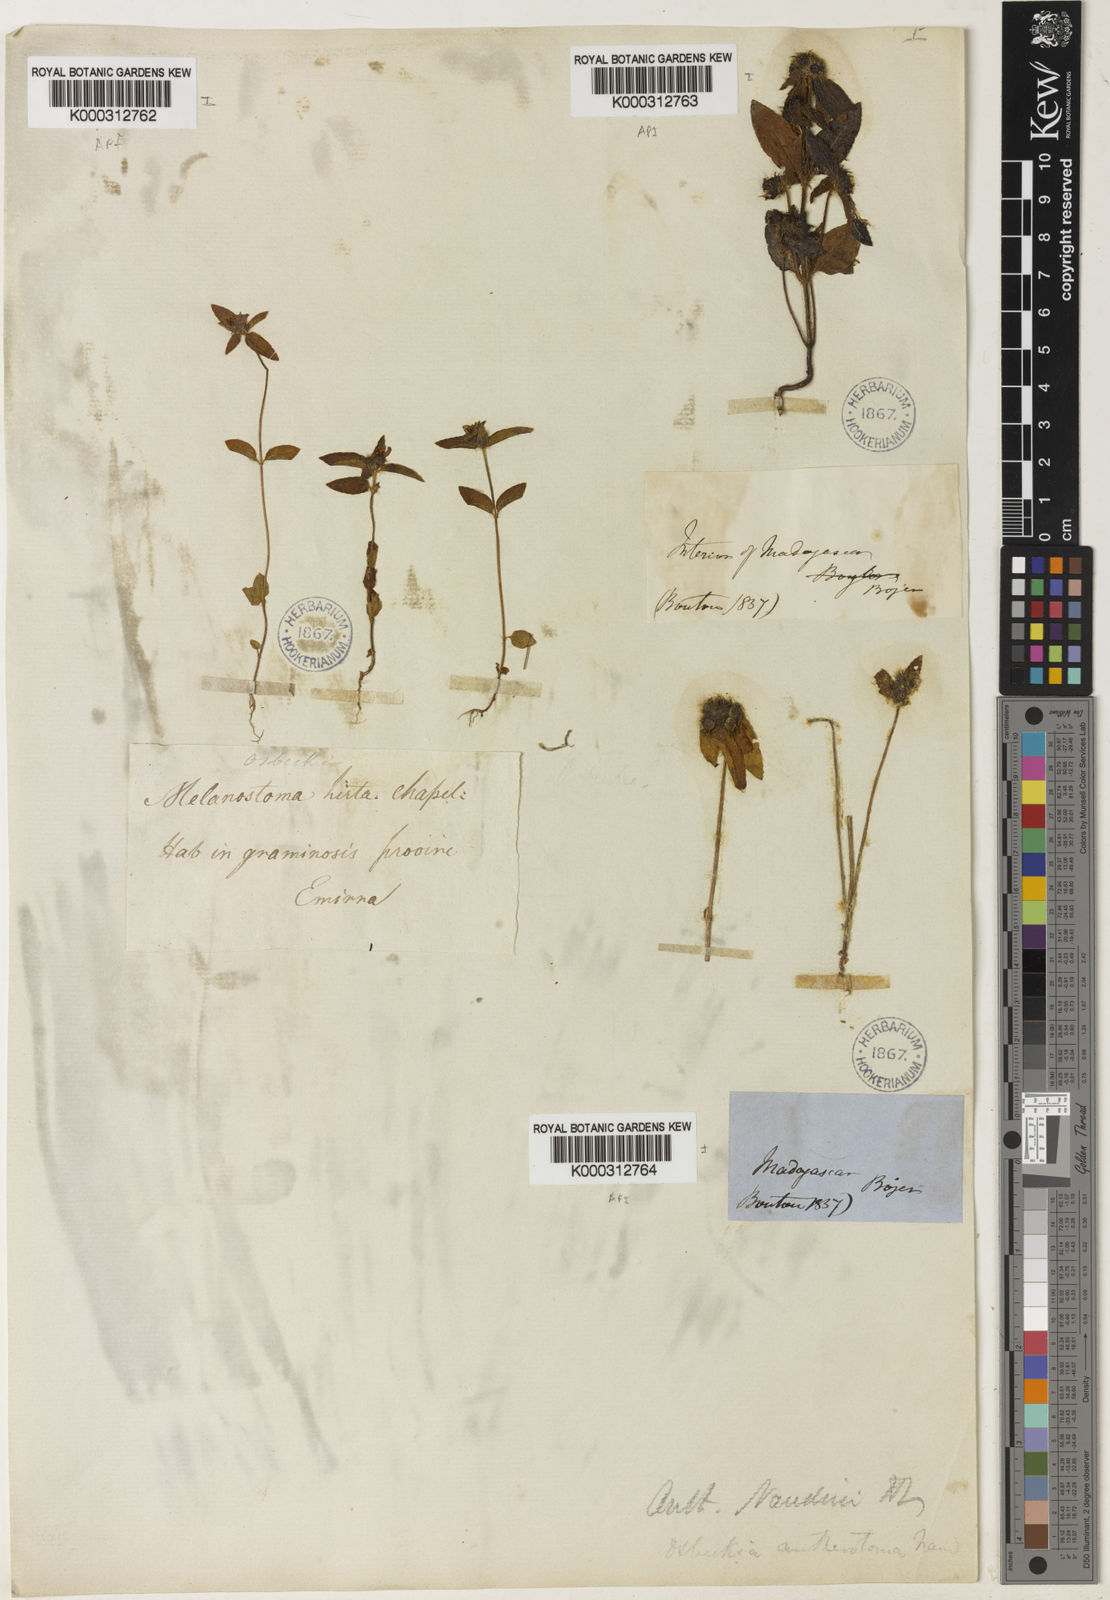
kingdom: Plantae
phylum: Tracheophyta
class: Magnoliopsida
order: Myrtales
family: Melastomataceae
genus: Antherotoma
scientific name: Antherotoma naudinii
